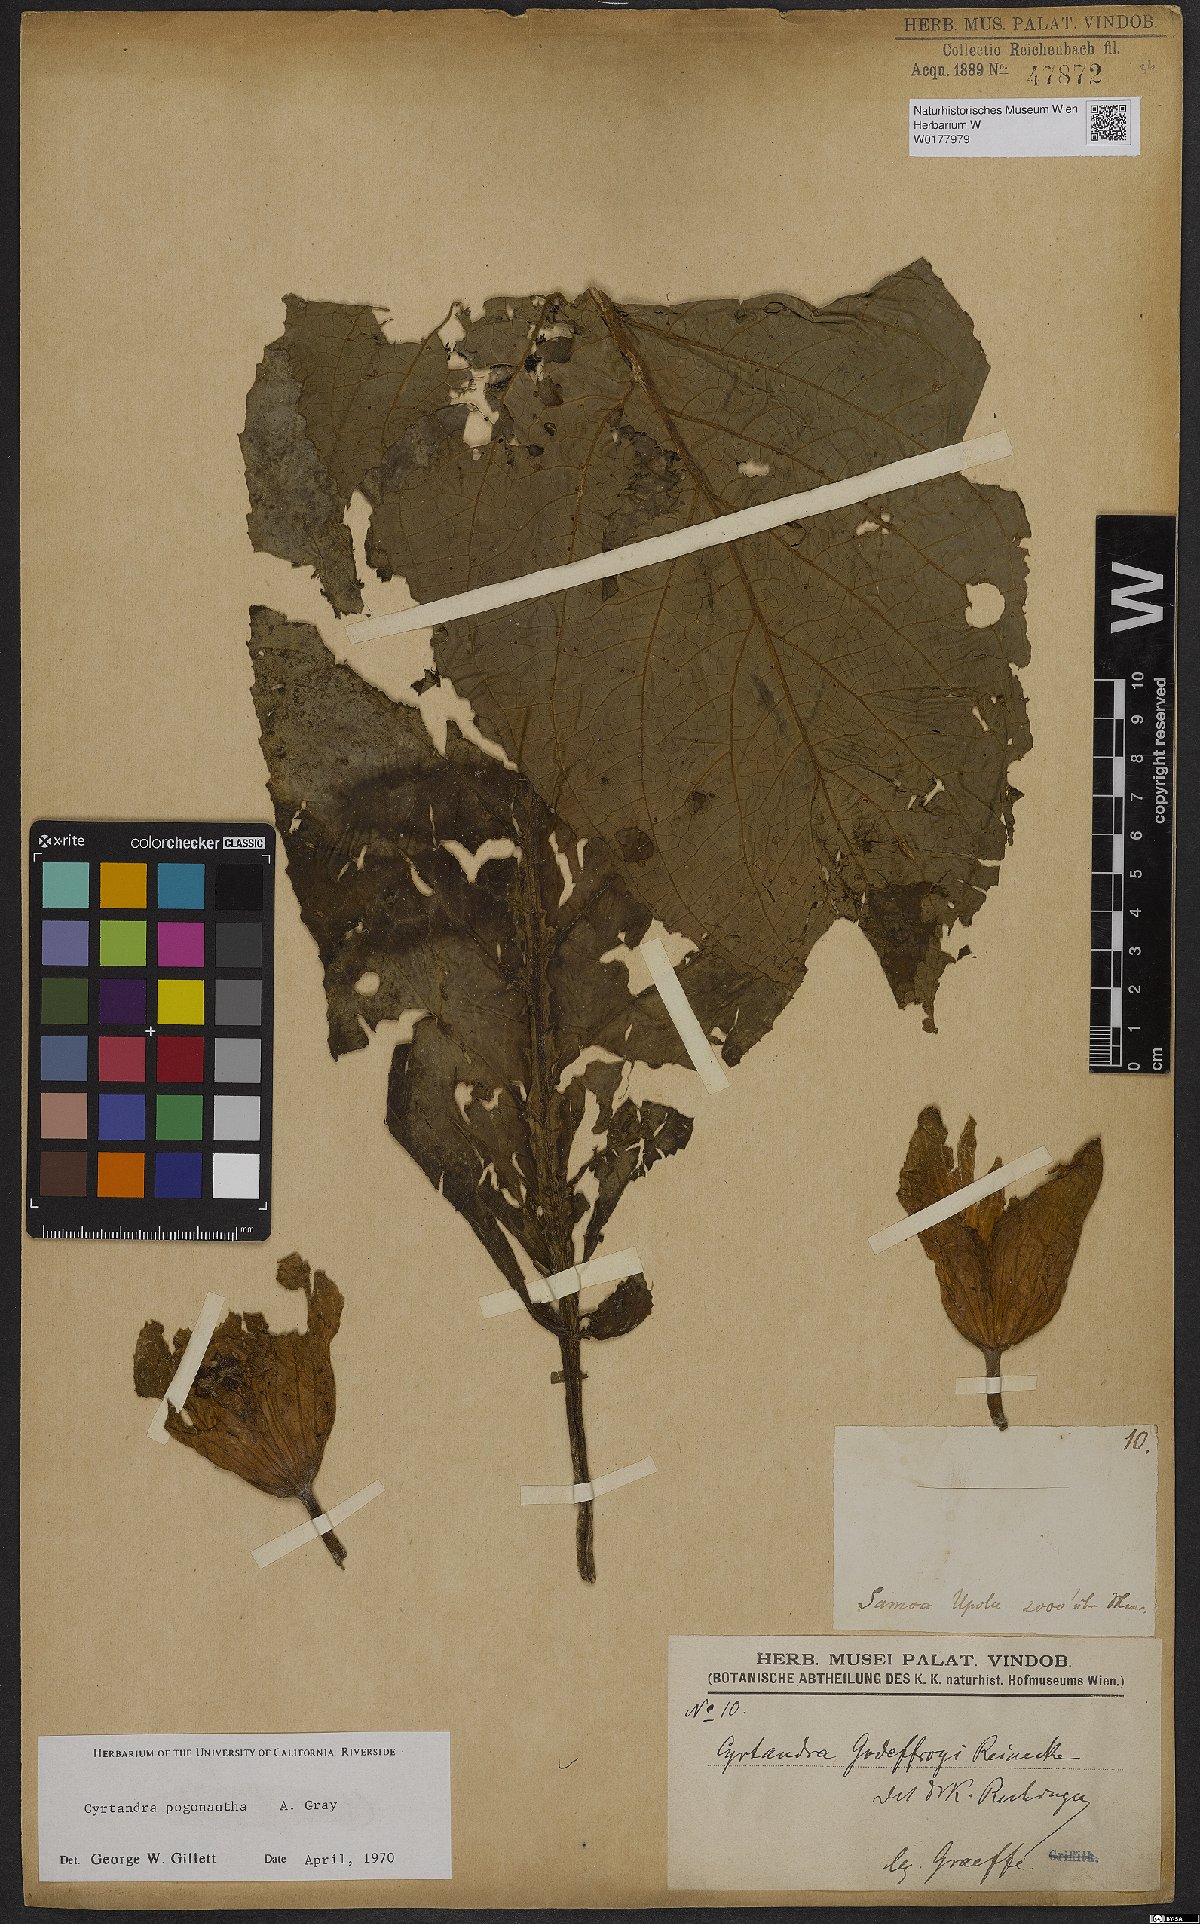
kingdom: Plantae
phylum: Tracheophyta
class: Magnoliopsida
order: Lamiales
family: Gesneriaceae
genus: Cyrtandra
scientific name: Cyrtandra pogonantha
